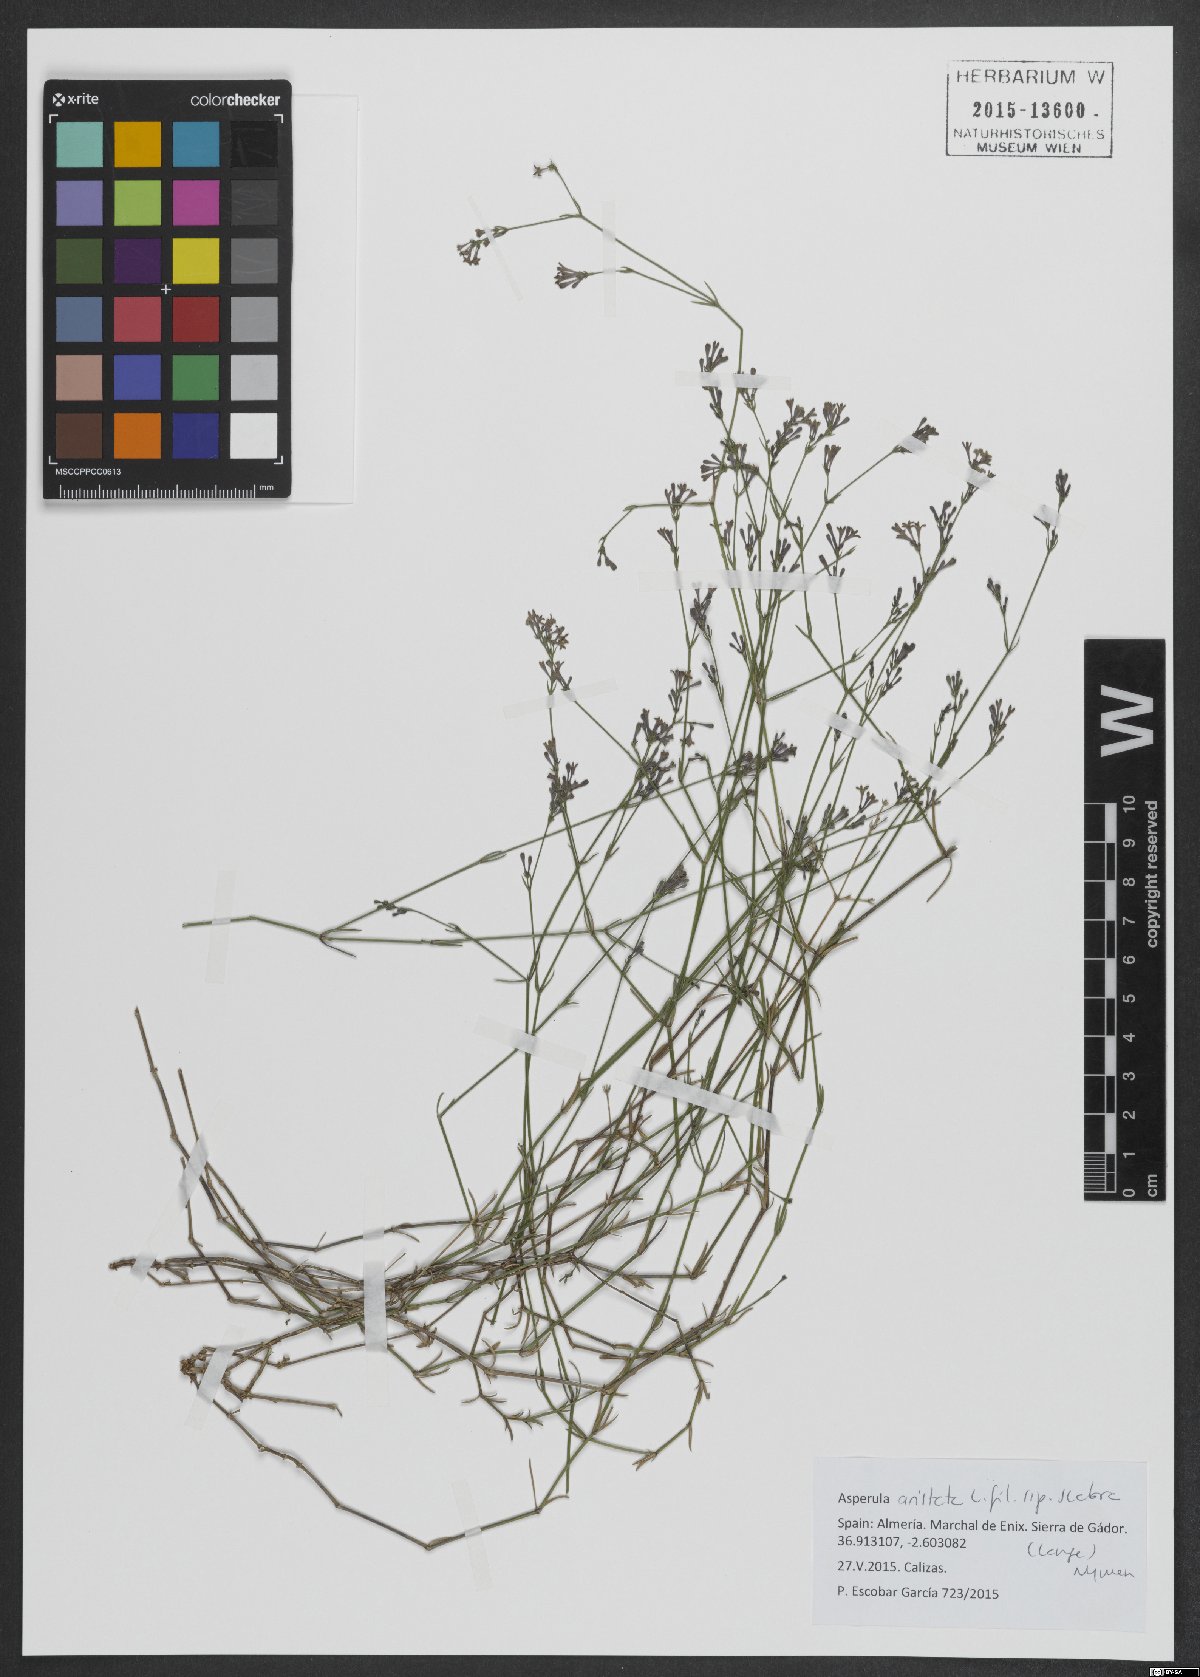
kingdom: Plantae
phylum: Tracheophyta
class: Magnoliopsida
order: Gentianales
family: Rubiaceae
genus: Cynanchica
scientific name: Cynanchica aristata
